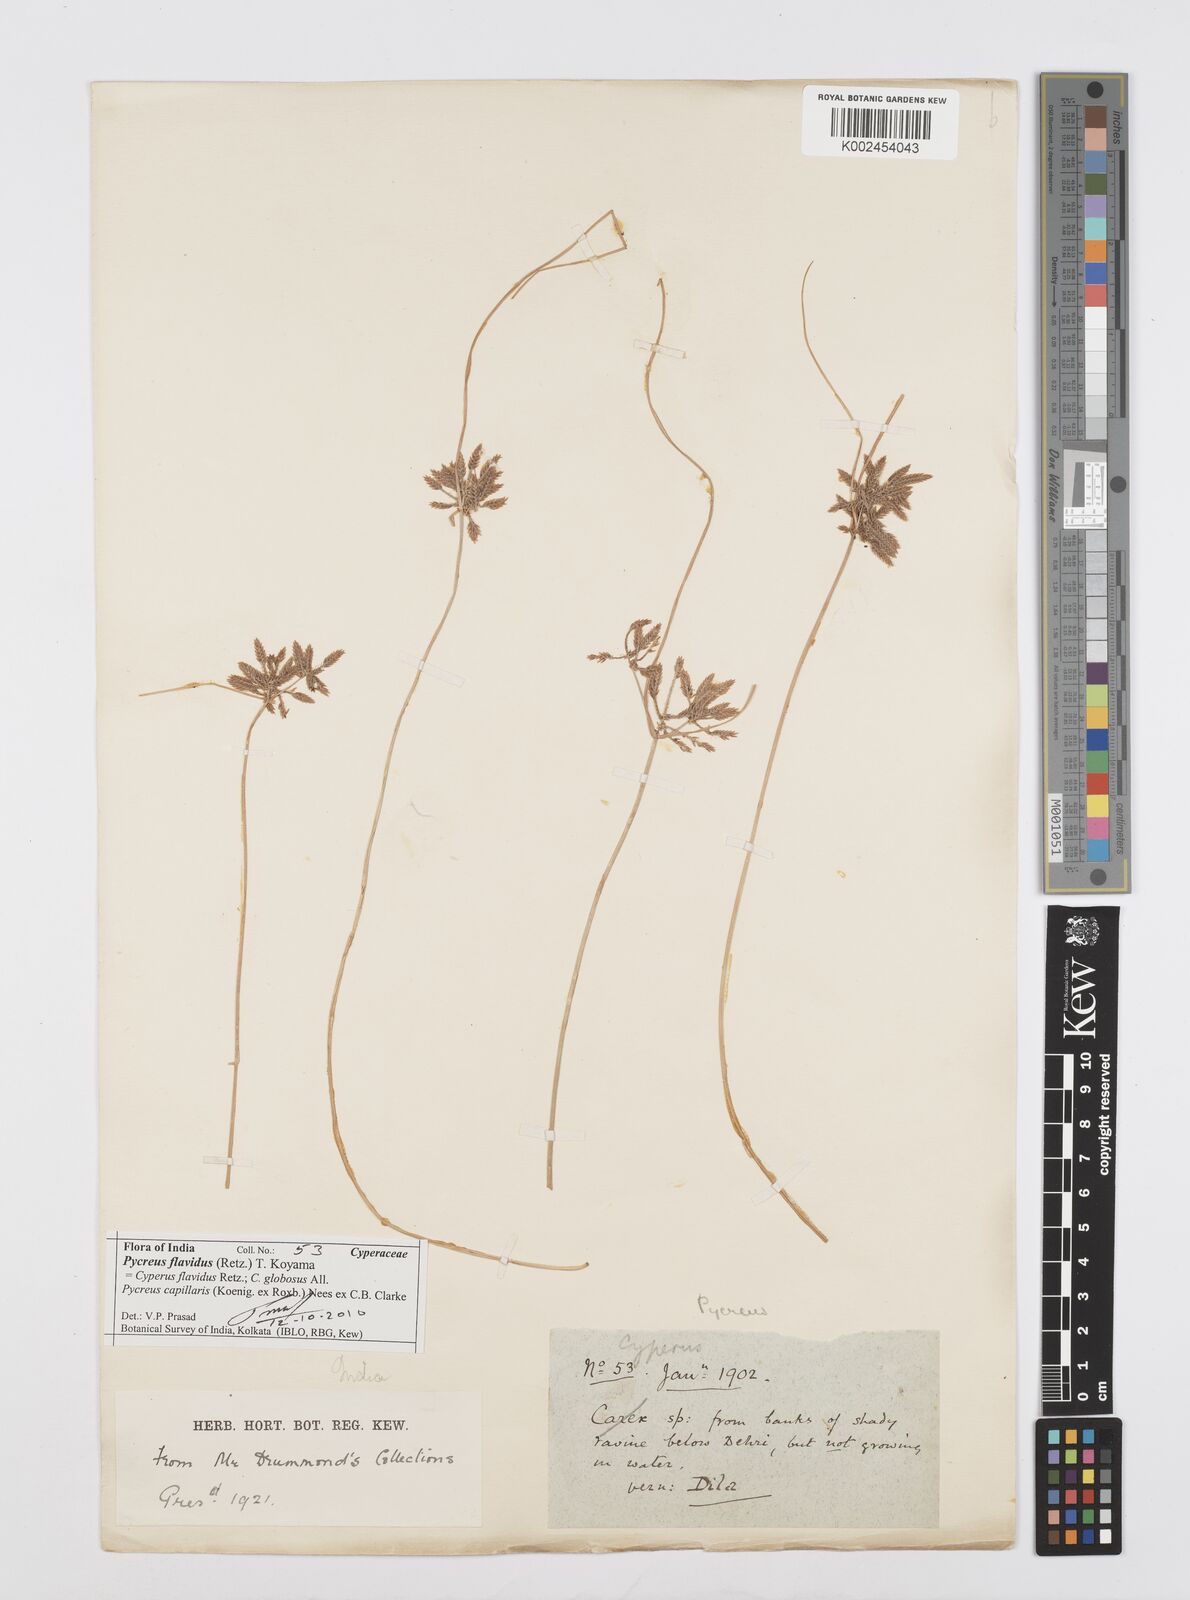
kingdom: Plantae
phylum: Tracheophyta
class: Liliopsida
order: Poales
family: Cyperaceae
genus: Cyperus
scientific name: Cyperus flavidus
